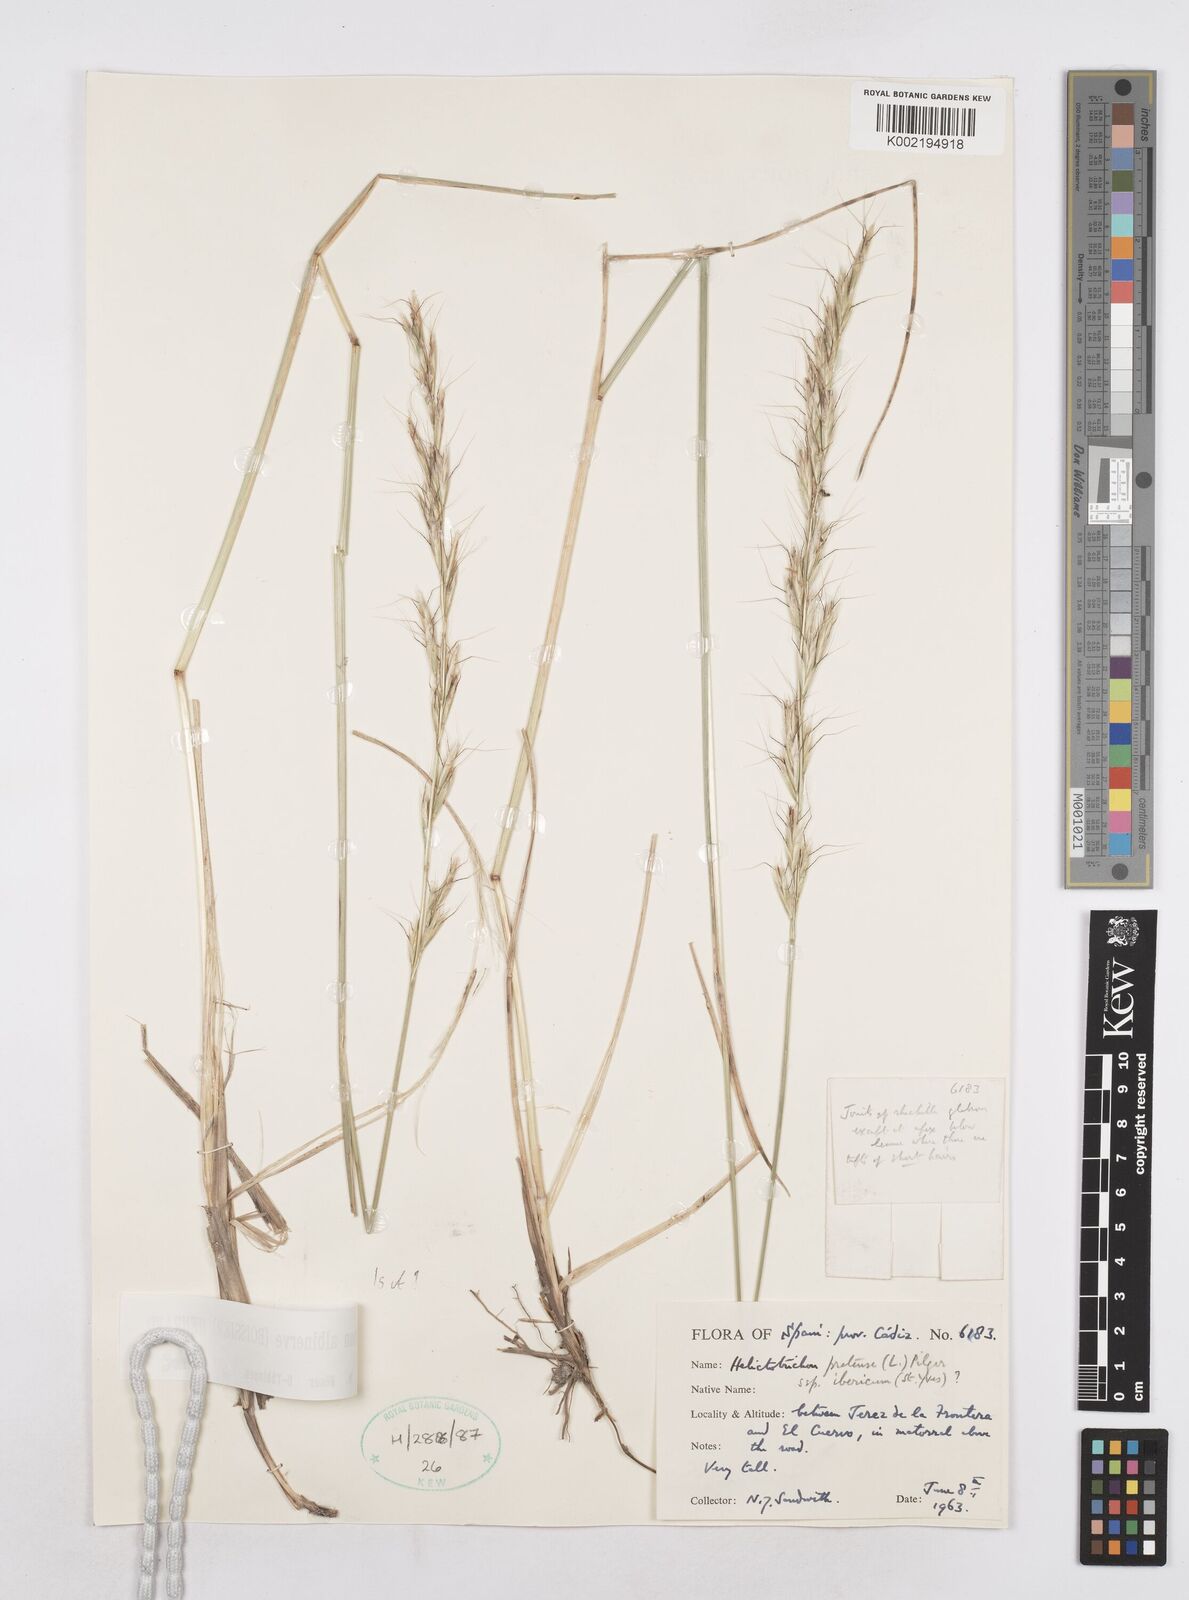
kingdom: Plantae
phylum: Tracheophyta
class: Liliopsida
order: Poales
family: Poaceae
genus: Helictochloa
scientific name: Helictochloa albinervis
